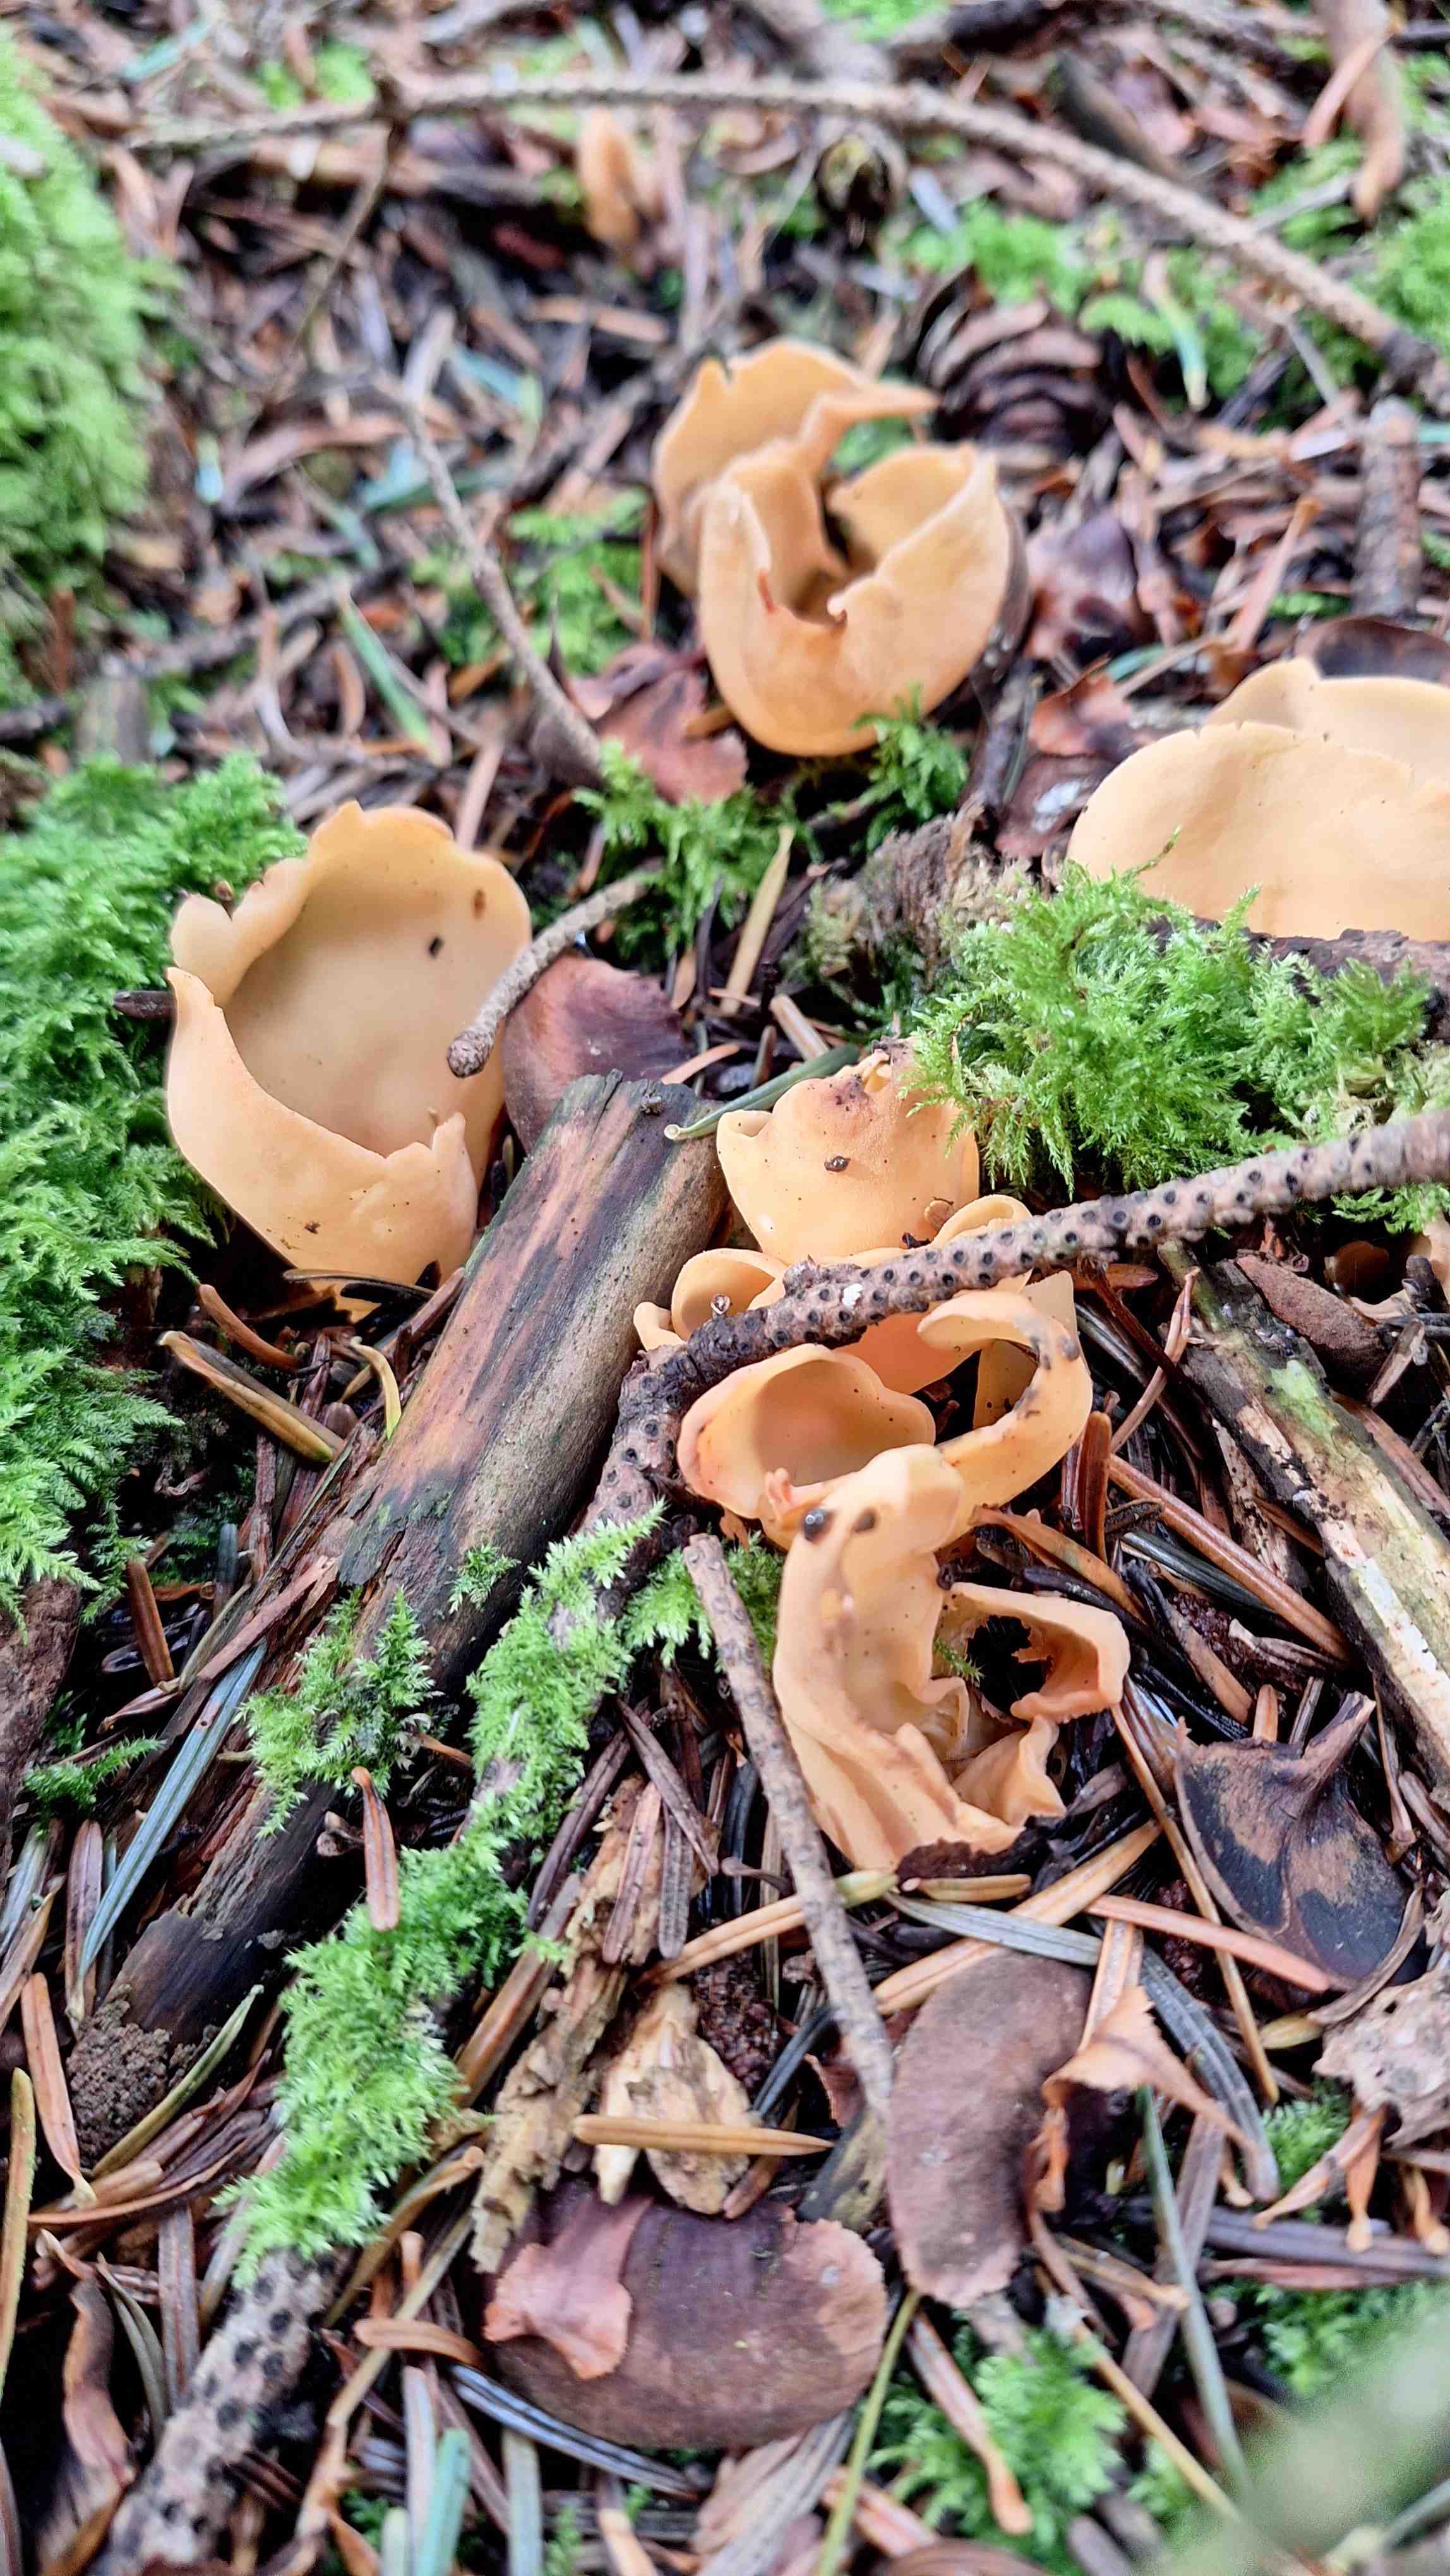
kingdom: Fungi
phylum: Ascomycota
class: Pezizomycetes
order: Pezizales
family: Otideaceae
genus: Otidea
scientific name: Otidea
